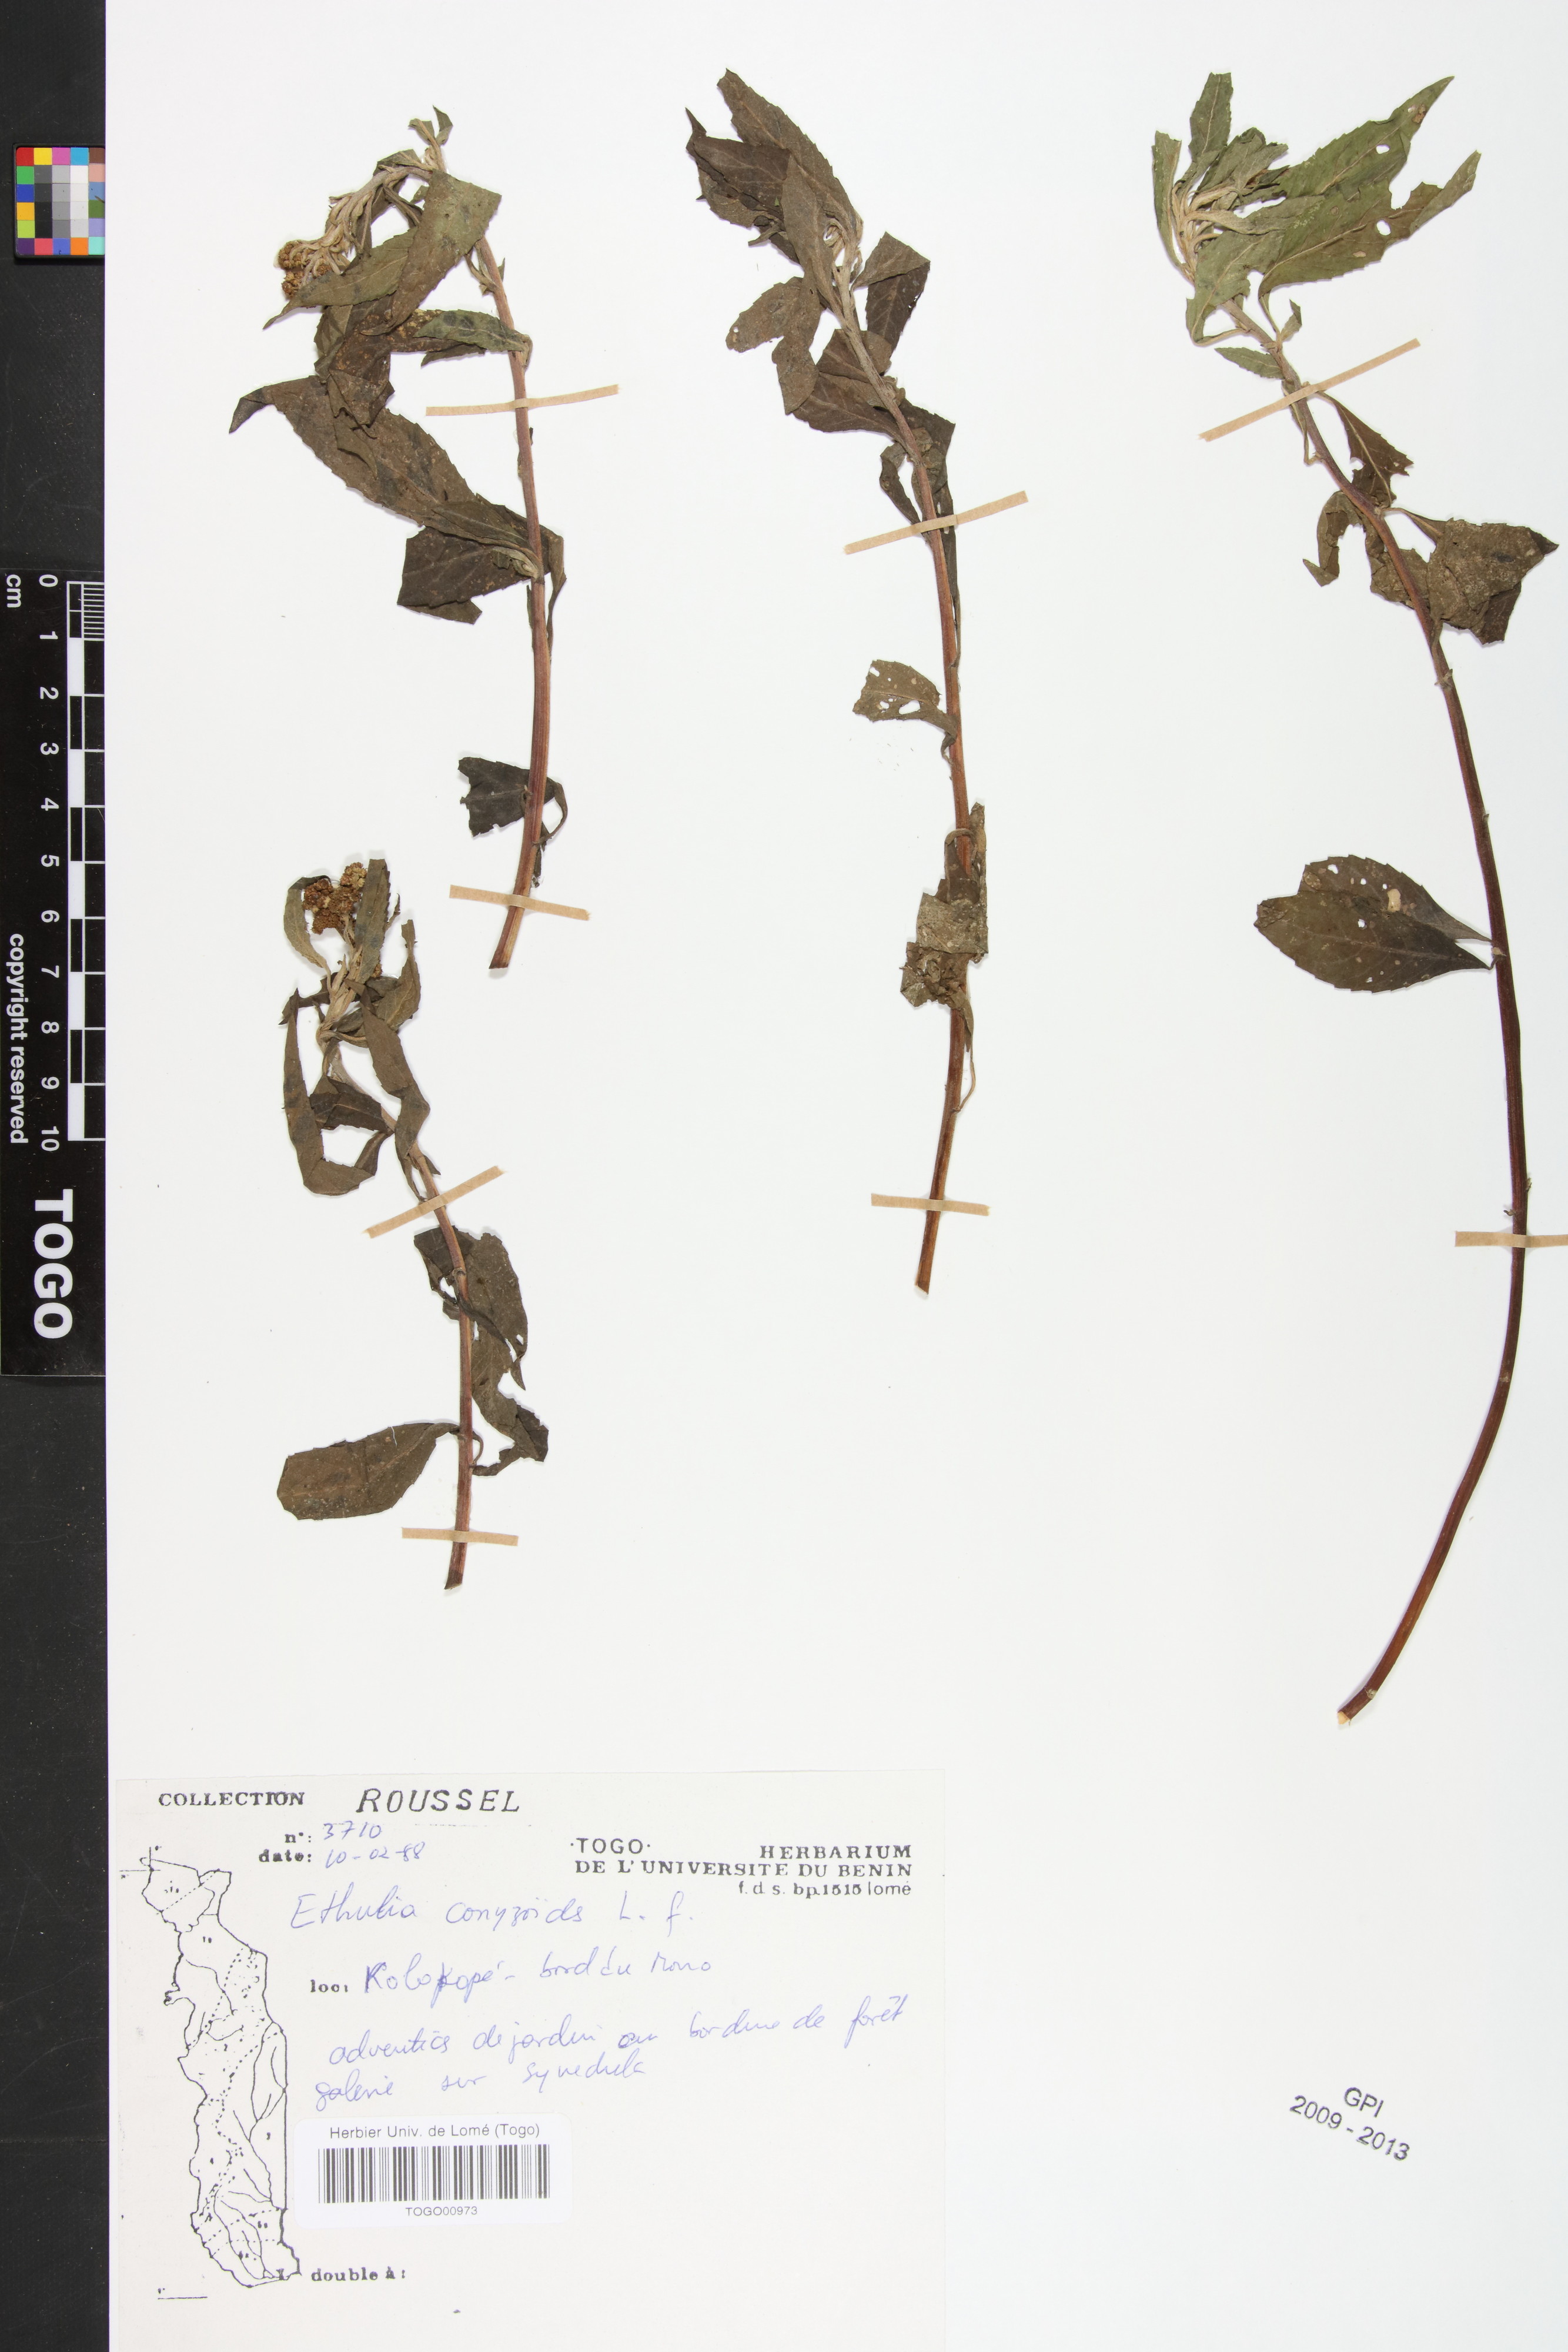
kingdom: Plantae
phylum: Tracheophyta
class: Magnoliopsida
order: Asterales
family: Asteraceae
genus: Ethulia
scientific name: Ethulia conyzoides
